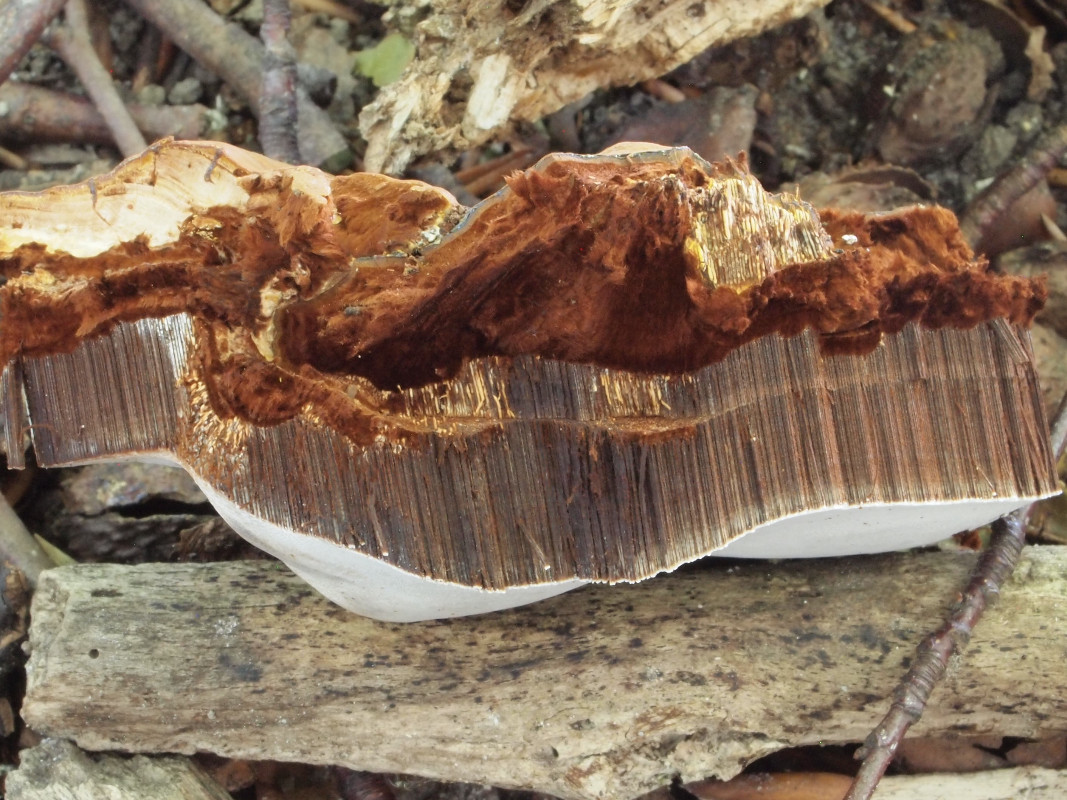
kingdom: Fungi
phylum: Basidiomycota
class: Agaricomycetes
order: Polyporales
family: Polyporaceae
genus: Ganoderma
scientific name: Ganoderma pfeifferi
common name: kobberrød lakporesvamp
